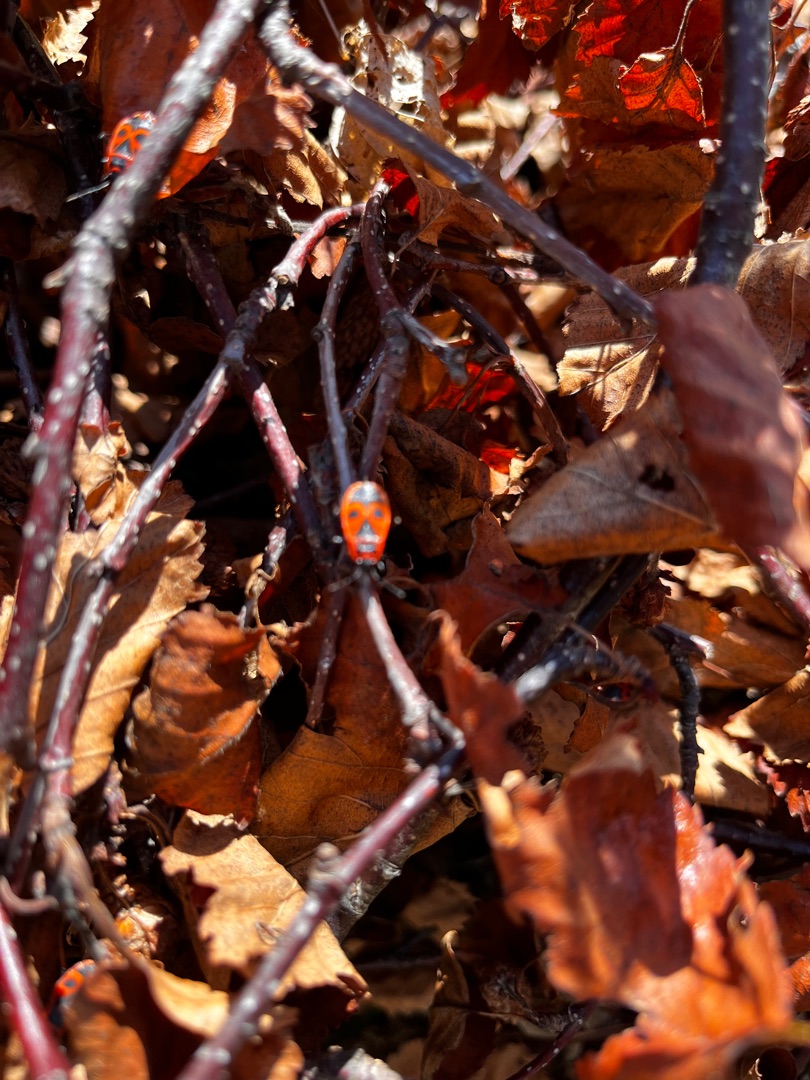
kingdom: Animalia
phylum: Arthropoda
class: Insecta
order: Hemiptera
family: Pyrrhocoridae
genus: Pyrrhocoris
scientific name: Pyrrhocoris apterus
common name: Ildtæge
